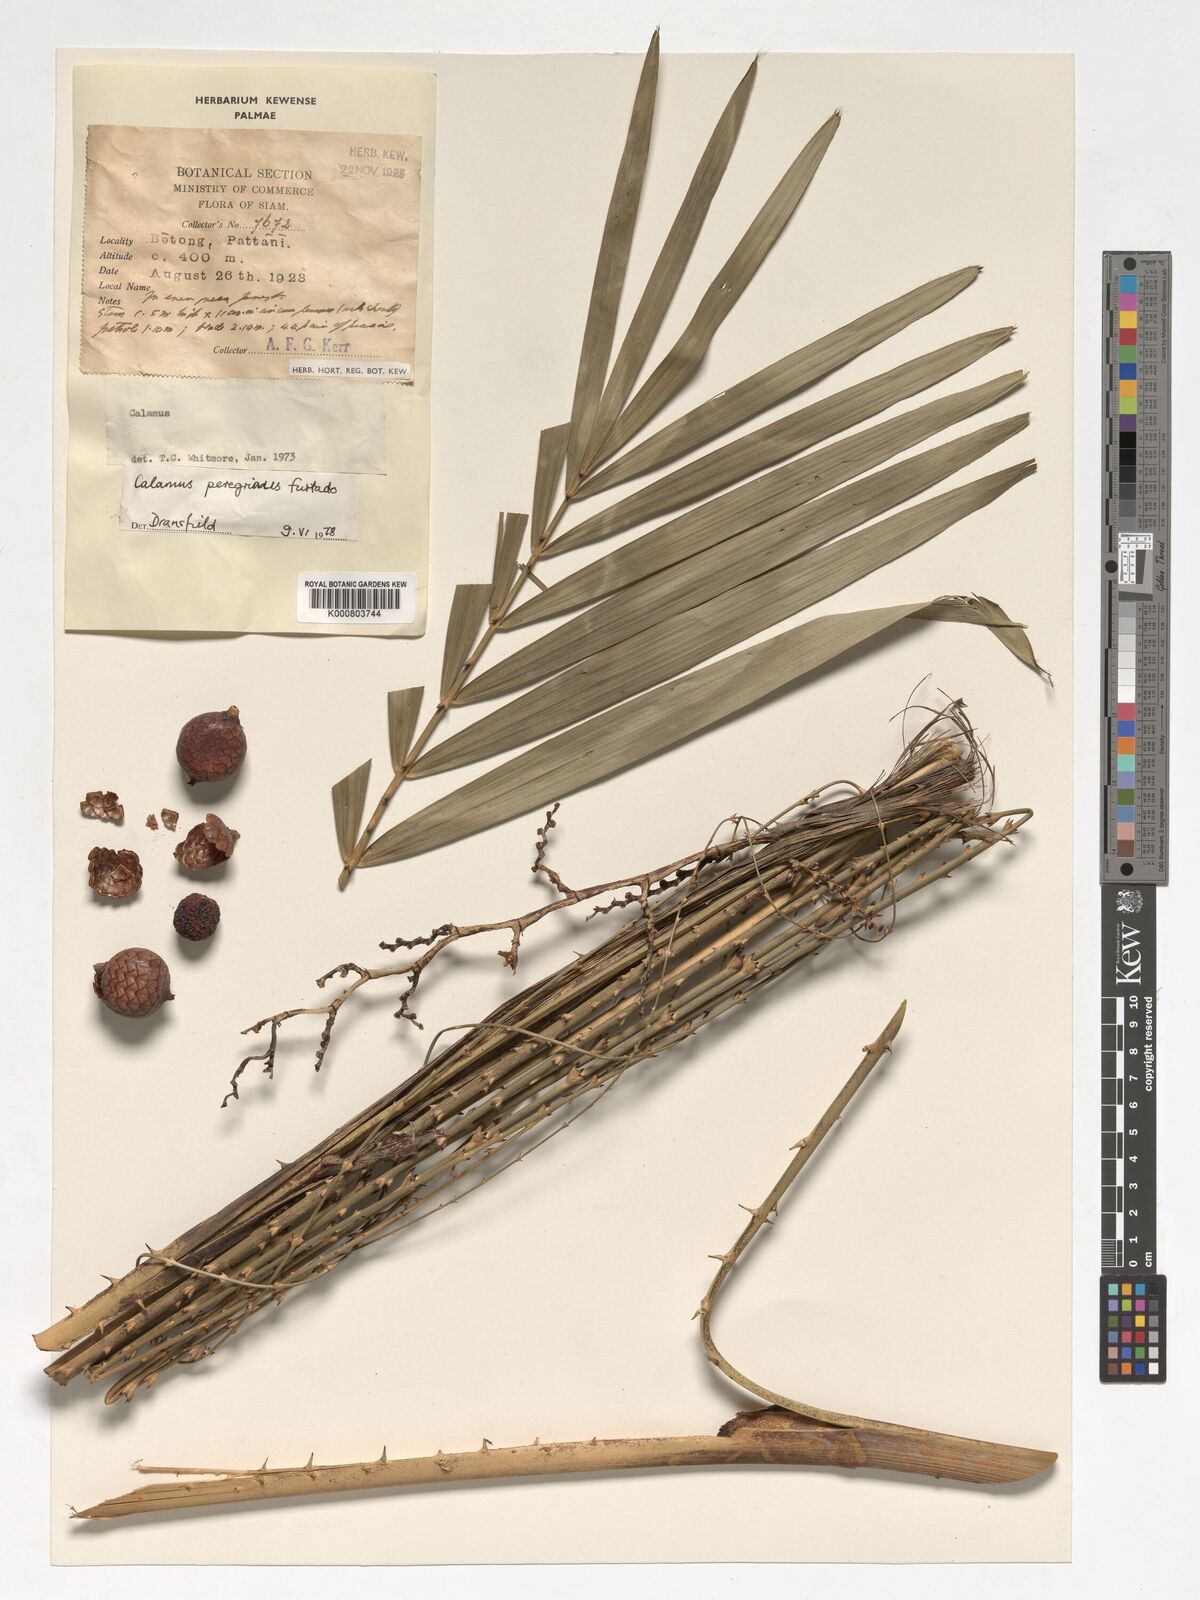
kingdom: Plantae
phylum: Tracheophyta
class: Liliopsida
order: Arecales
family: Arecaceae
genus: Calamus
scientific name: Calamus peregrinus
